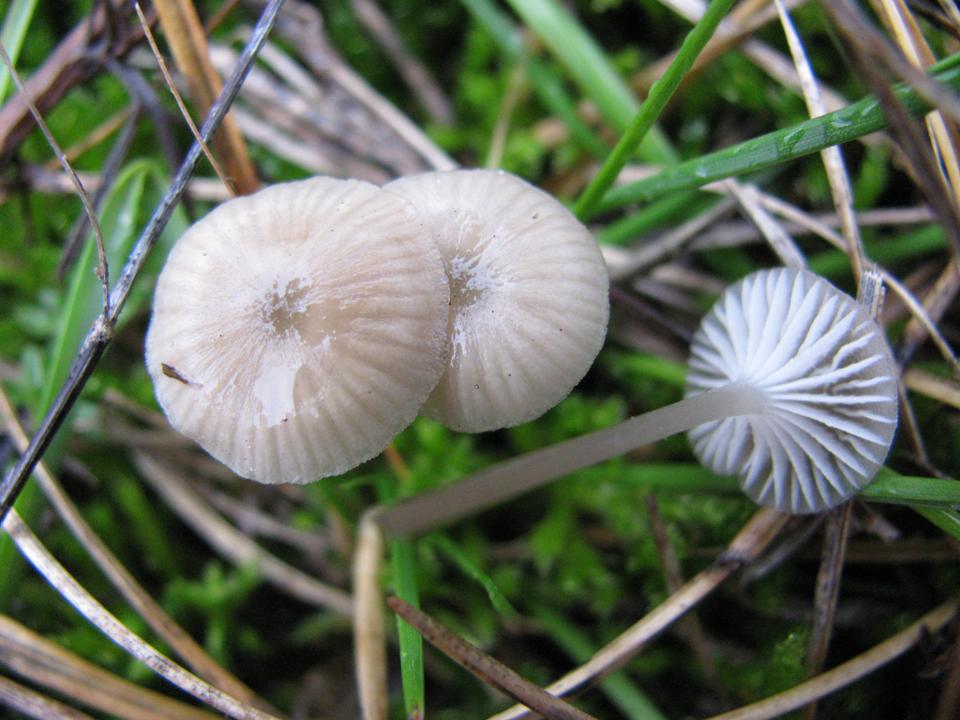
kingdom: Fungi
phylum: Basidiomycota
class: Agaricomycetes
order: Agaricales
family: Mycenaceae
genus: Mycena
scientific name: Mycena cinerella
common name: mel-huesvamp
